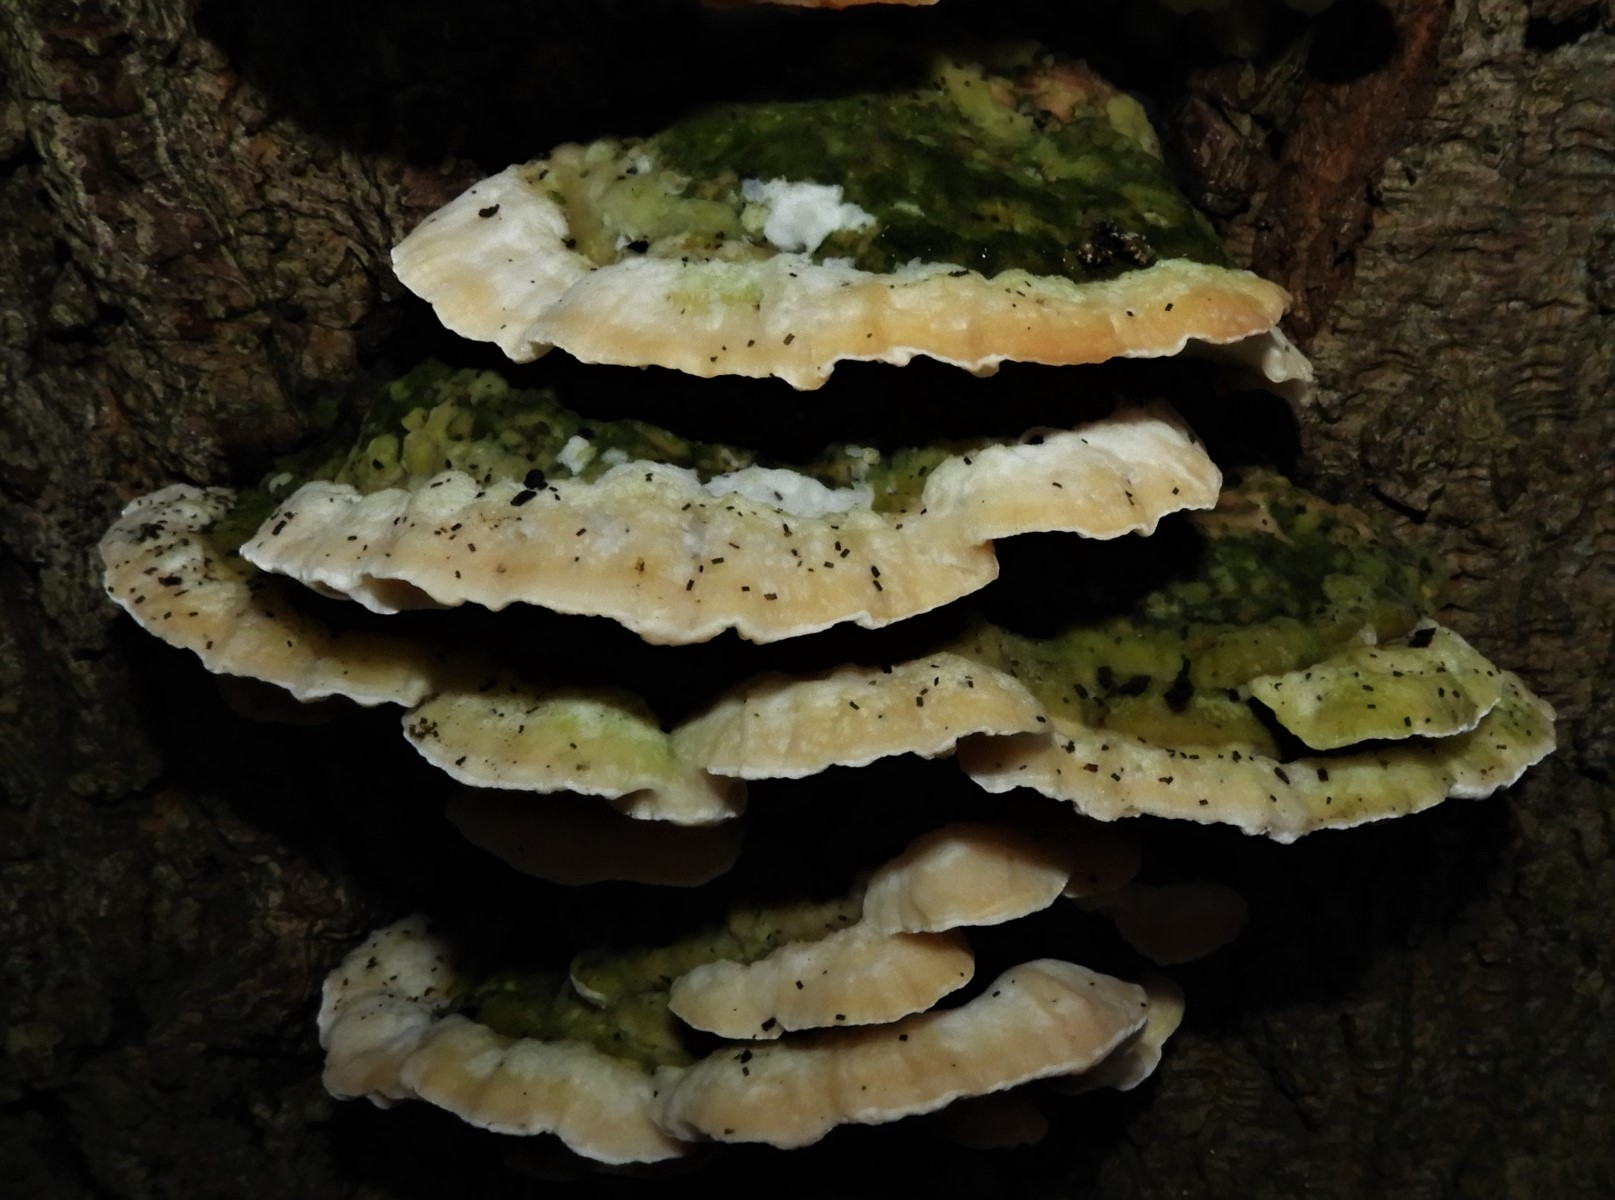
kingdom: Fungi
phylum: Basidiomycota
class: Agaricomycetes
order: Hymenochaetales
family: Oxyporaceae
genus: Oxyporus
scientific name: Oxyporus populinus
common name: sammenvokset trylleporesvamp
